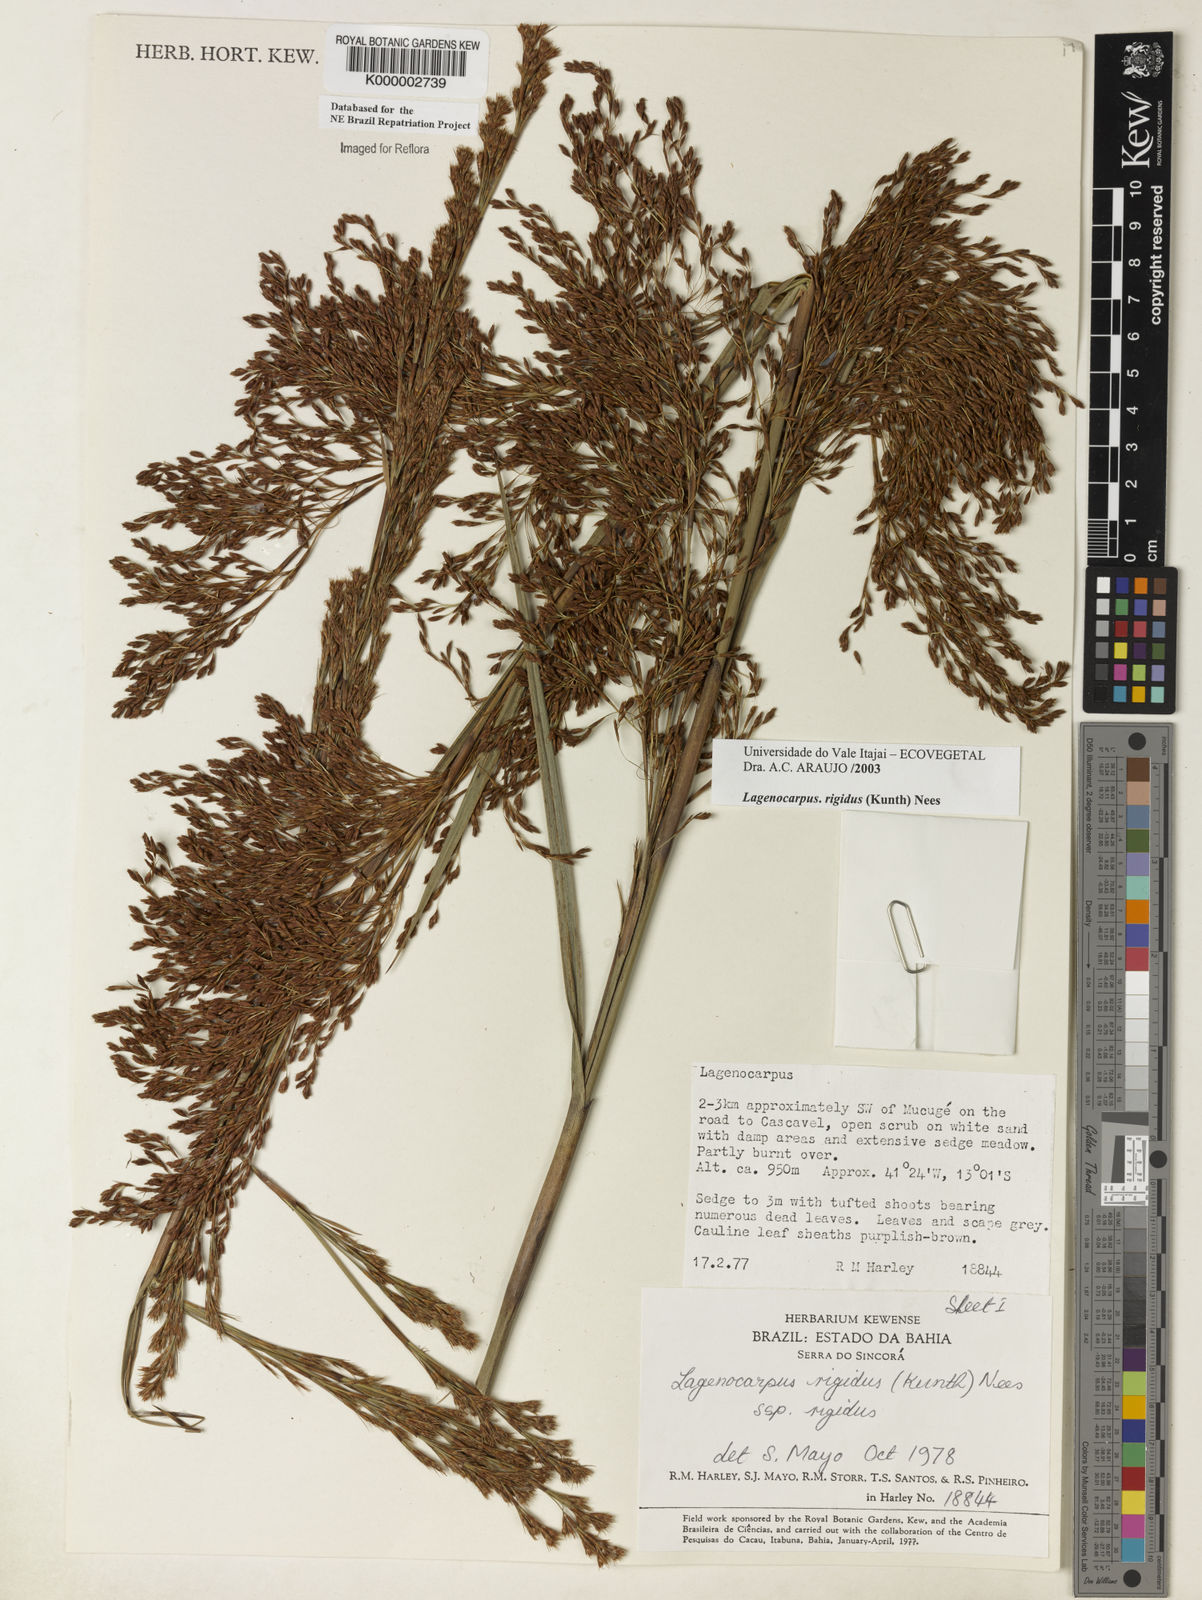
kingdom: Plantae
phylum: Tracheophyta
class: Liliopsida
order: Poales
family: Cyperaceae
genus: Lagenocarpus
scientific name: Lagenocarpus rigidus
